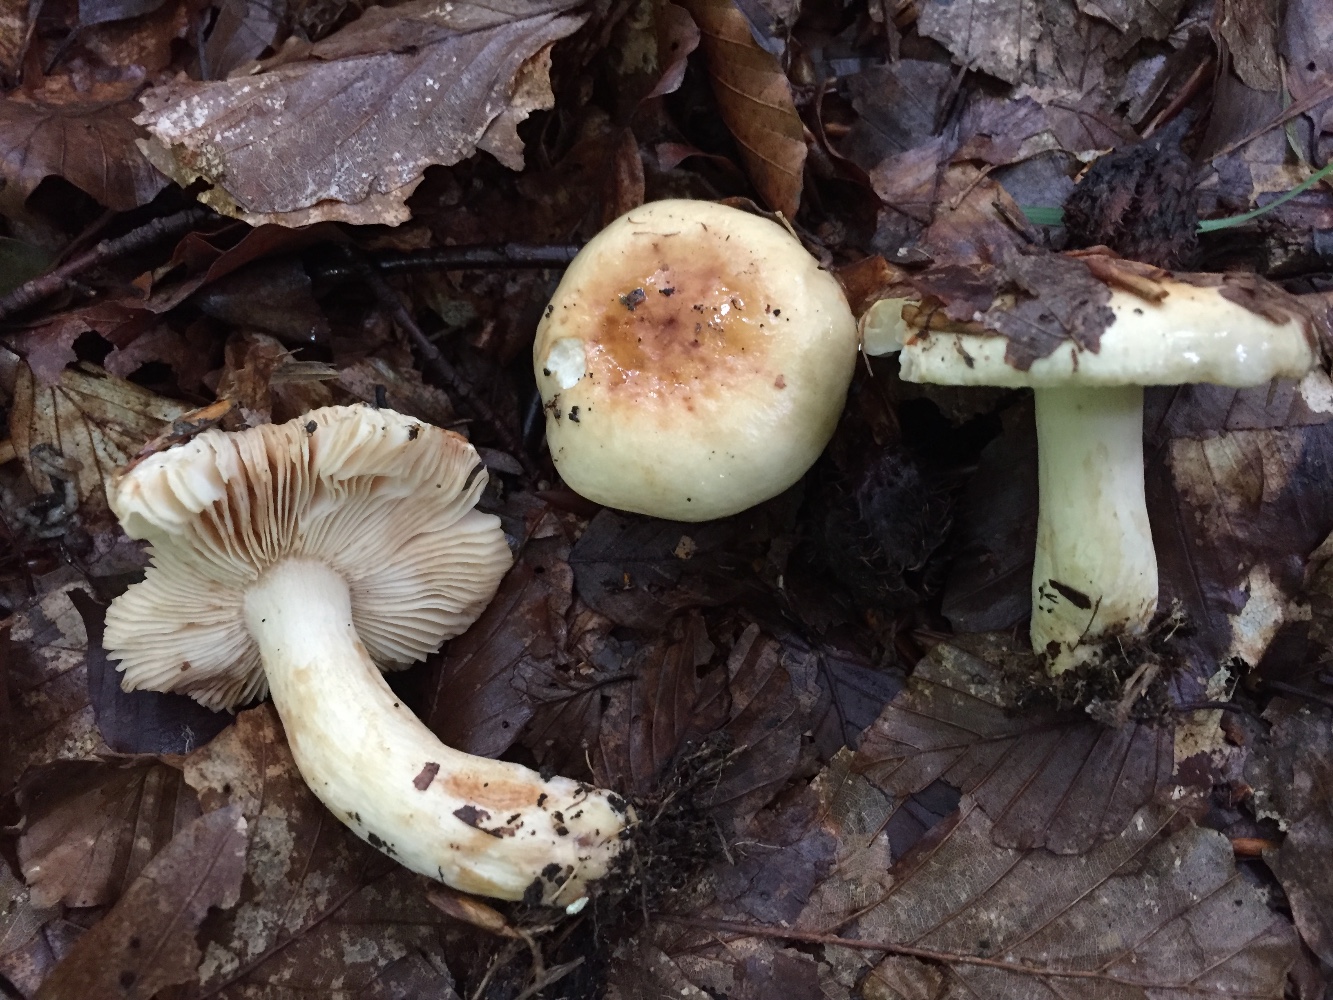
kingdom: Fungi
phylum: Basidiomycota
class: Agaricomycetes
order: Russulales
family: Russulaceae
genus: Russula
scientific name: Russula fellea
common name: galde-skørhat
